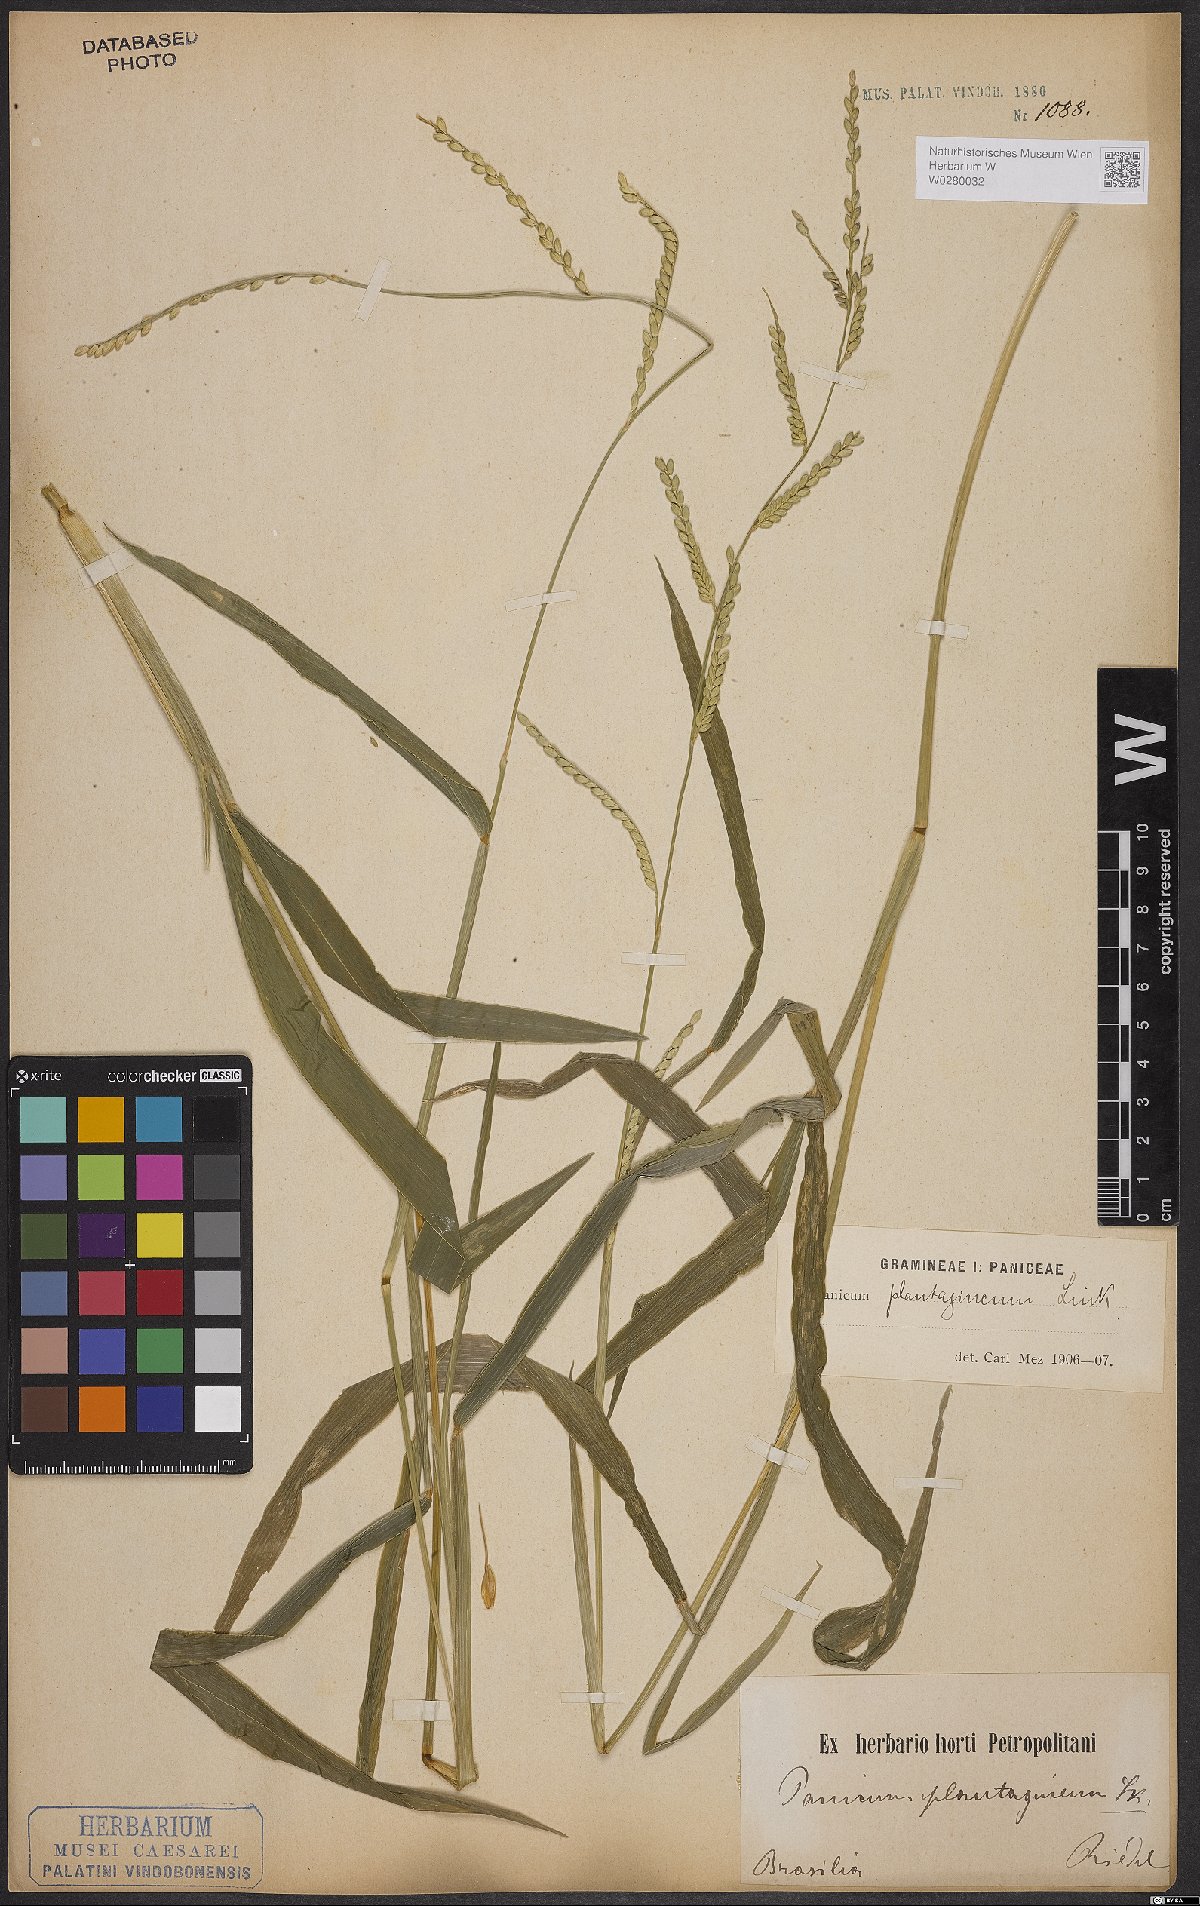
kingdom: Plantae
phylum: Tracheophyta
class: Liliopsida
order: Poales
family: Poaceae
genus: Urochloa
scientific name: Urochloa plantaginea
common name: Plantain signalgrass
